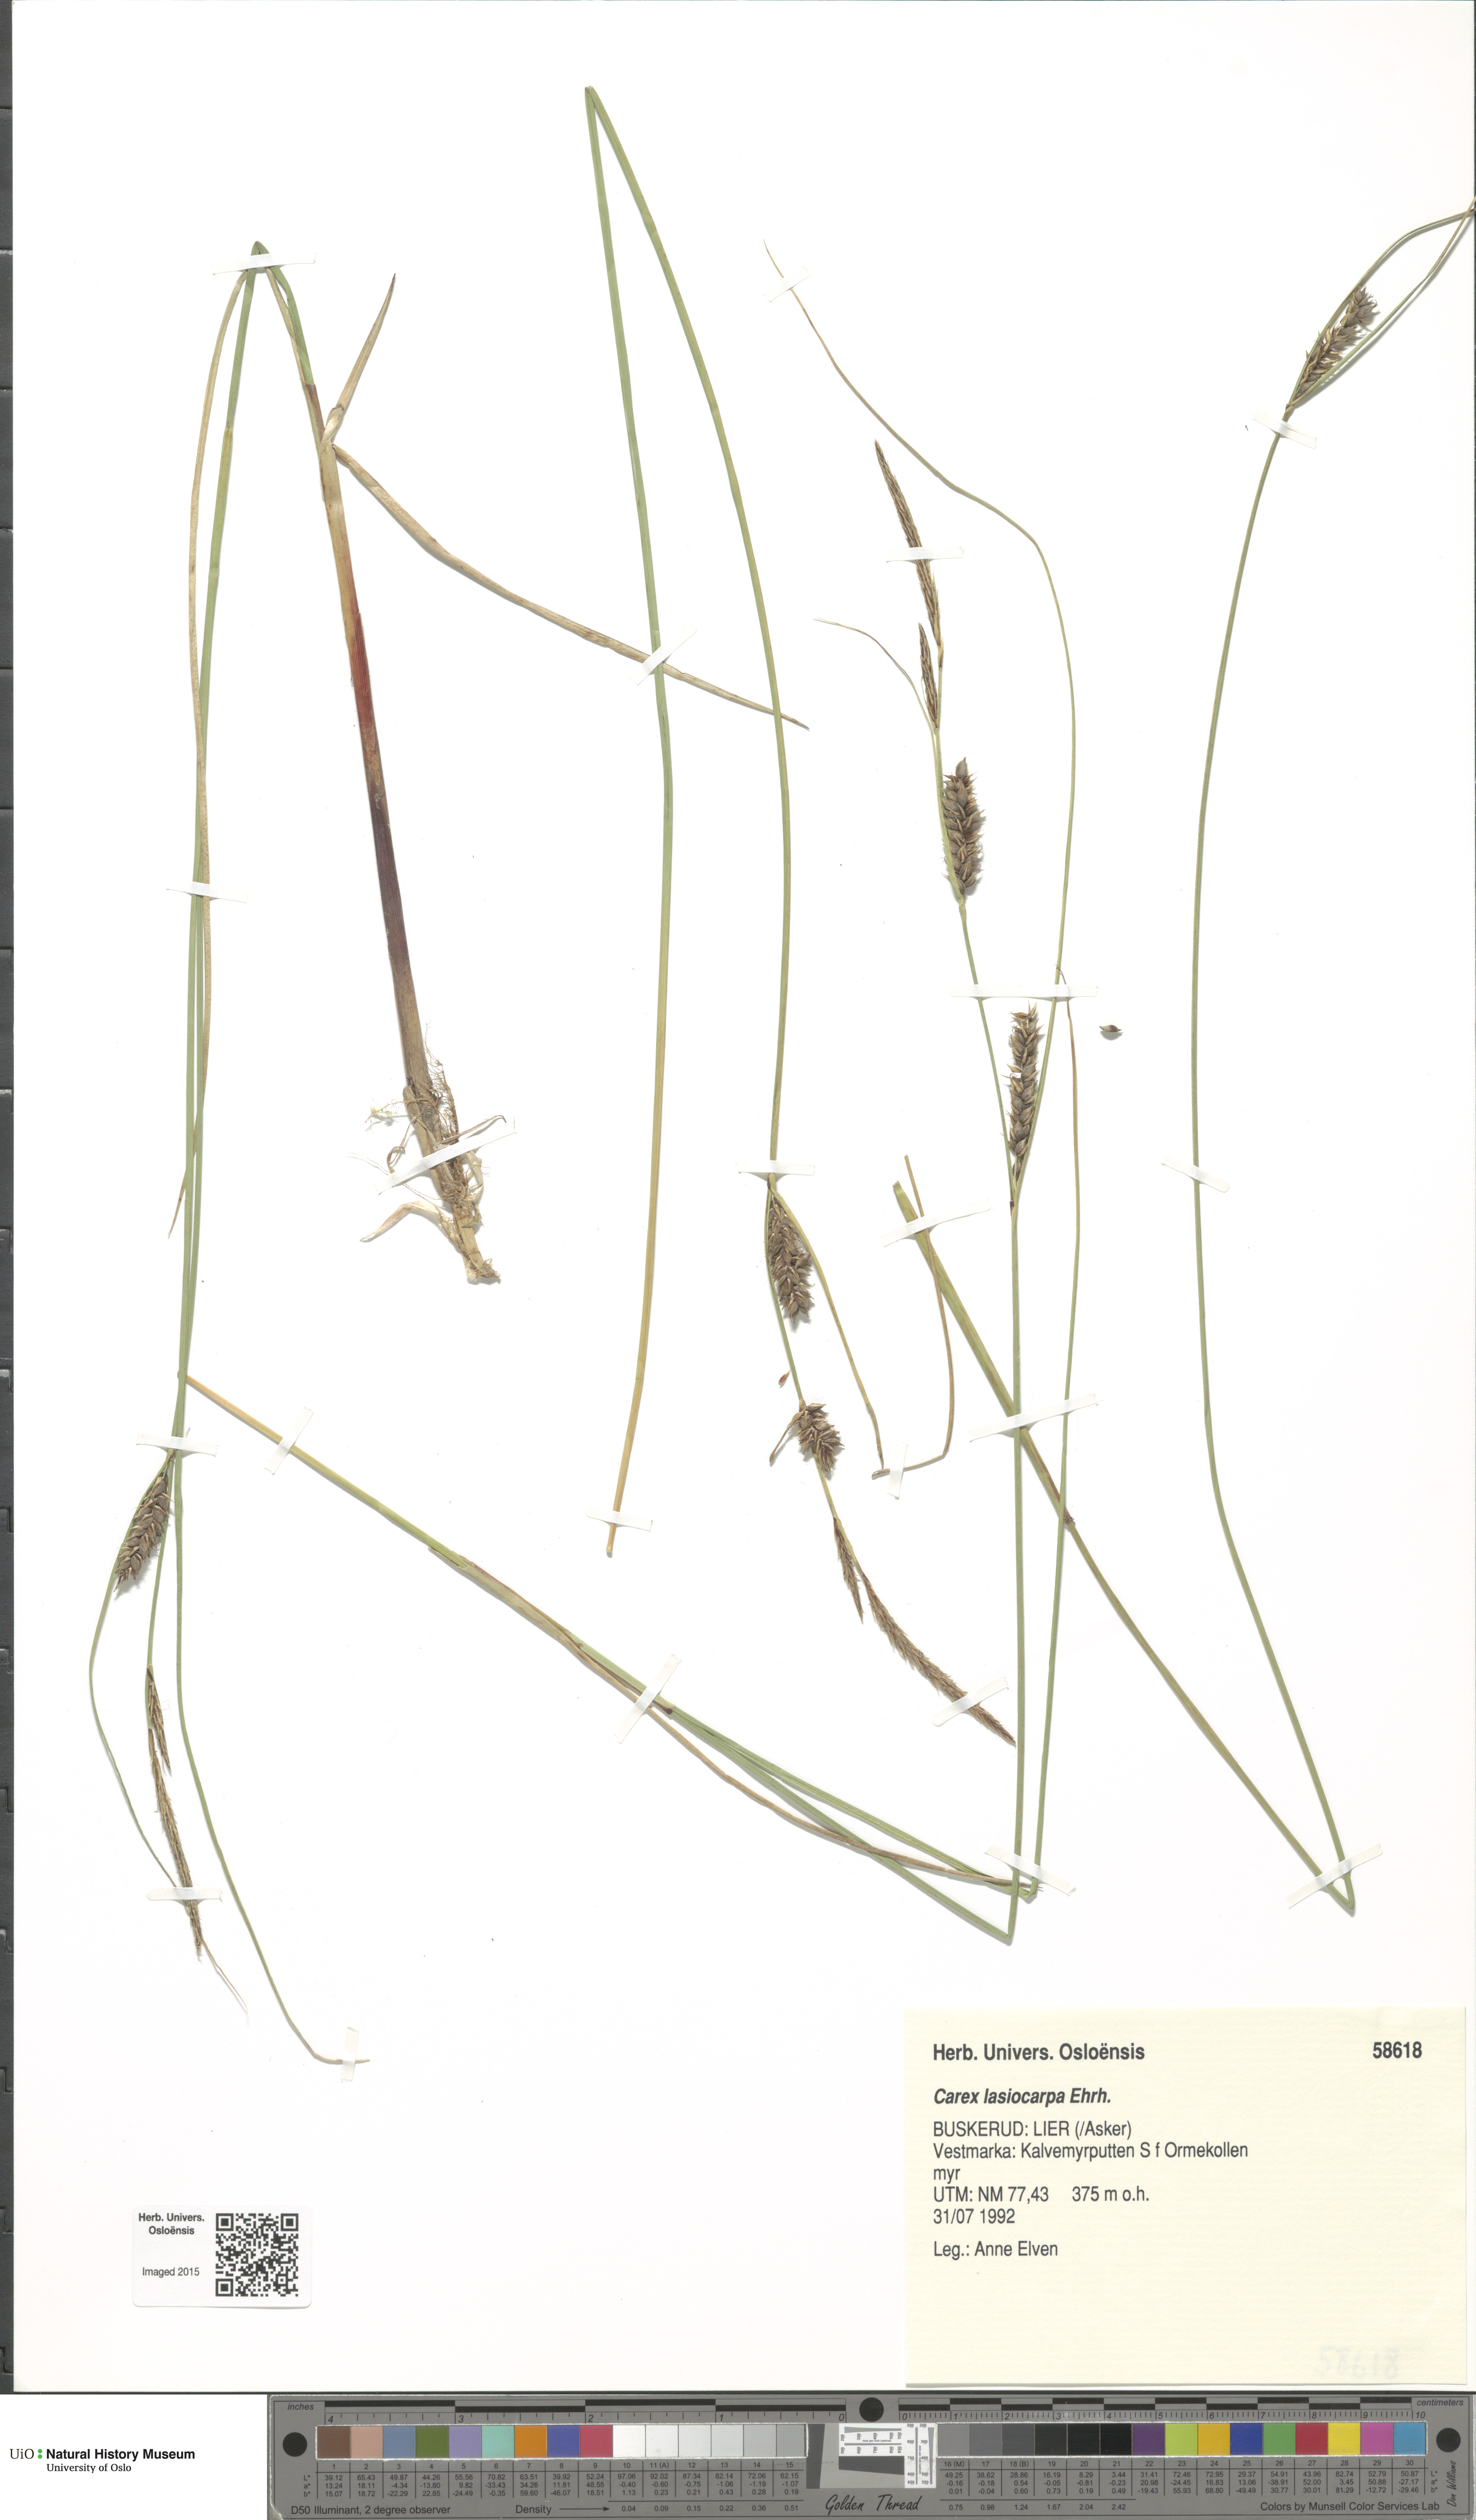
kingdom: Plantae
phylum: Tracheophyta
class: Liliopsida
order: Poales
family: Cyperaceae
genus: Carex
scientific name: Carex lasiocarpa
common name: Slender sedge
